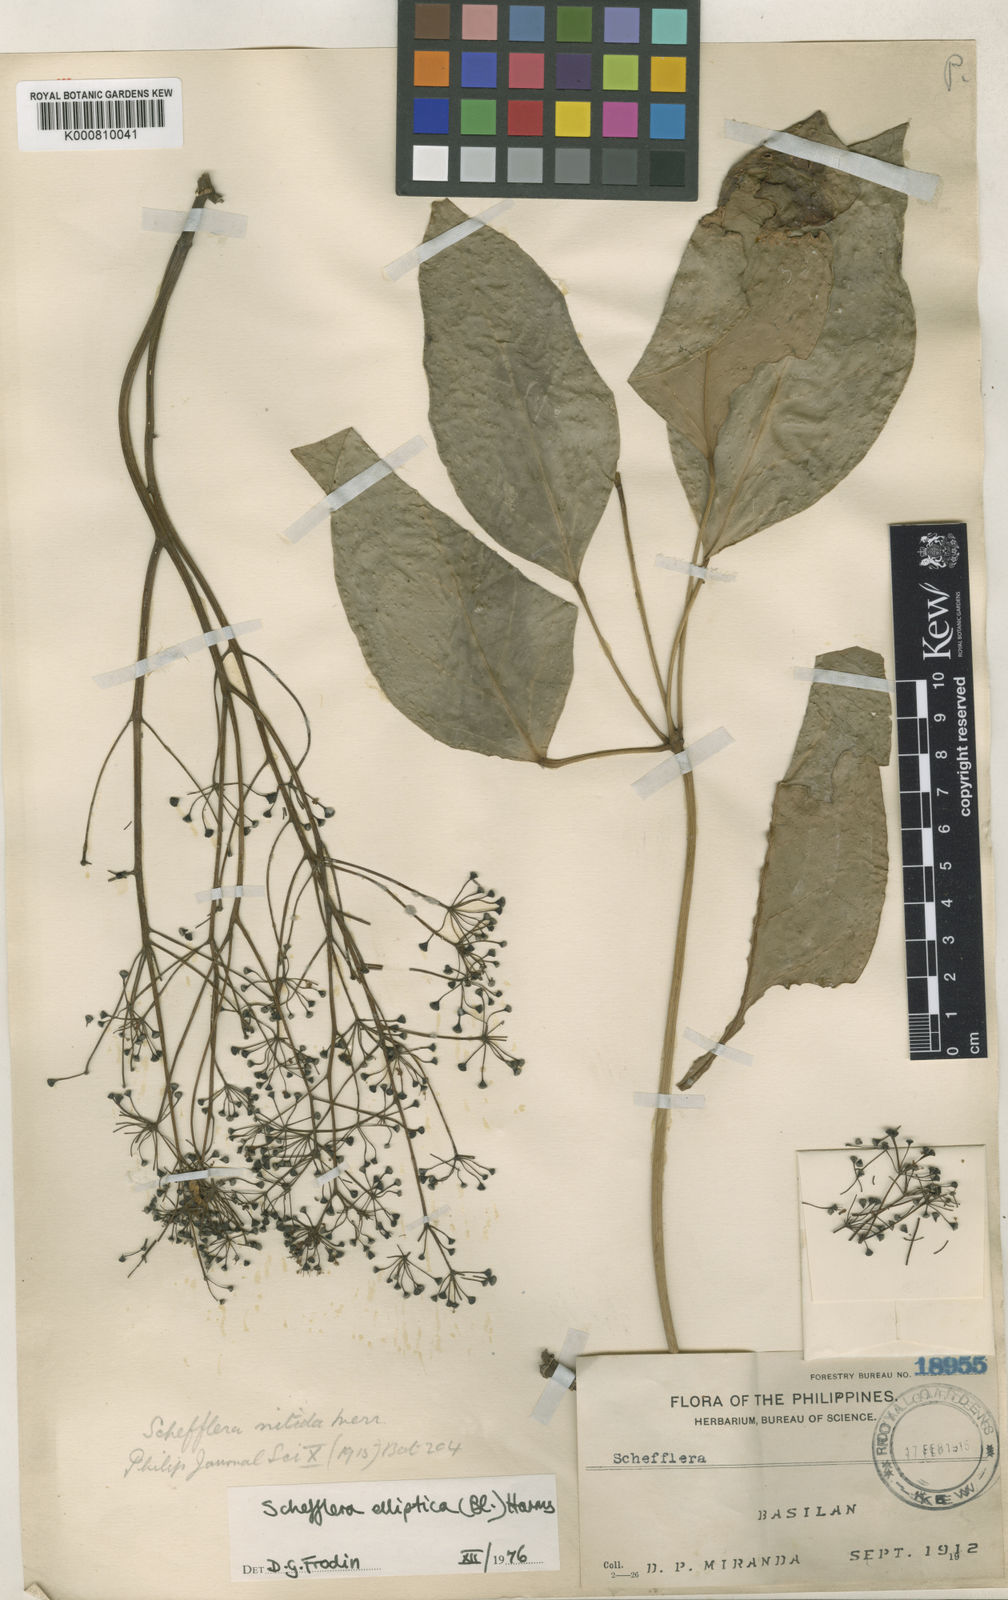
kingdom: Plantae
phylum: Tracheophyta
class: Magnoliopsida
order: Apiales
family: Araliaceae
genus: Heptapleurum
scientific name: Heptapleurum ellipticum
